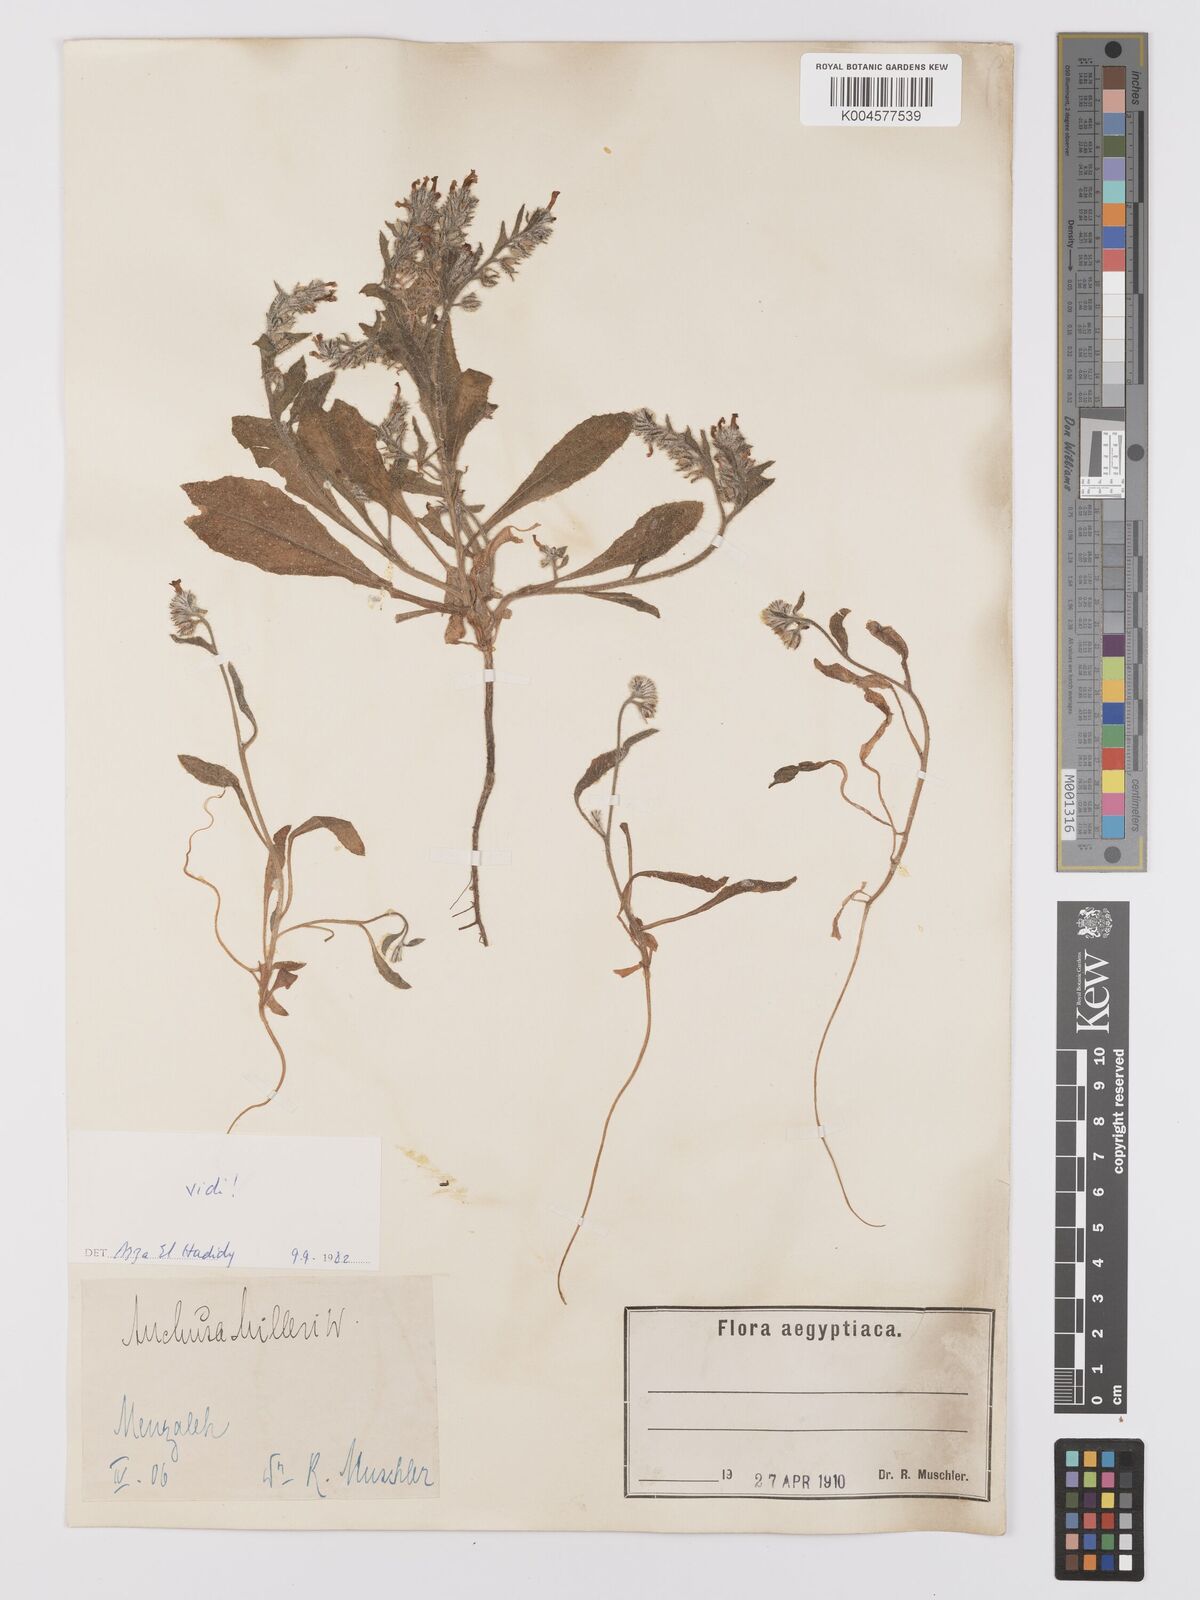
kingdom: Plantae
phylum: Tracheophyta
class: Magnoliopsida
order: Boraginales
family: Boraginaceae
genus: Anchusa
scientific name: Anchusa milleri
